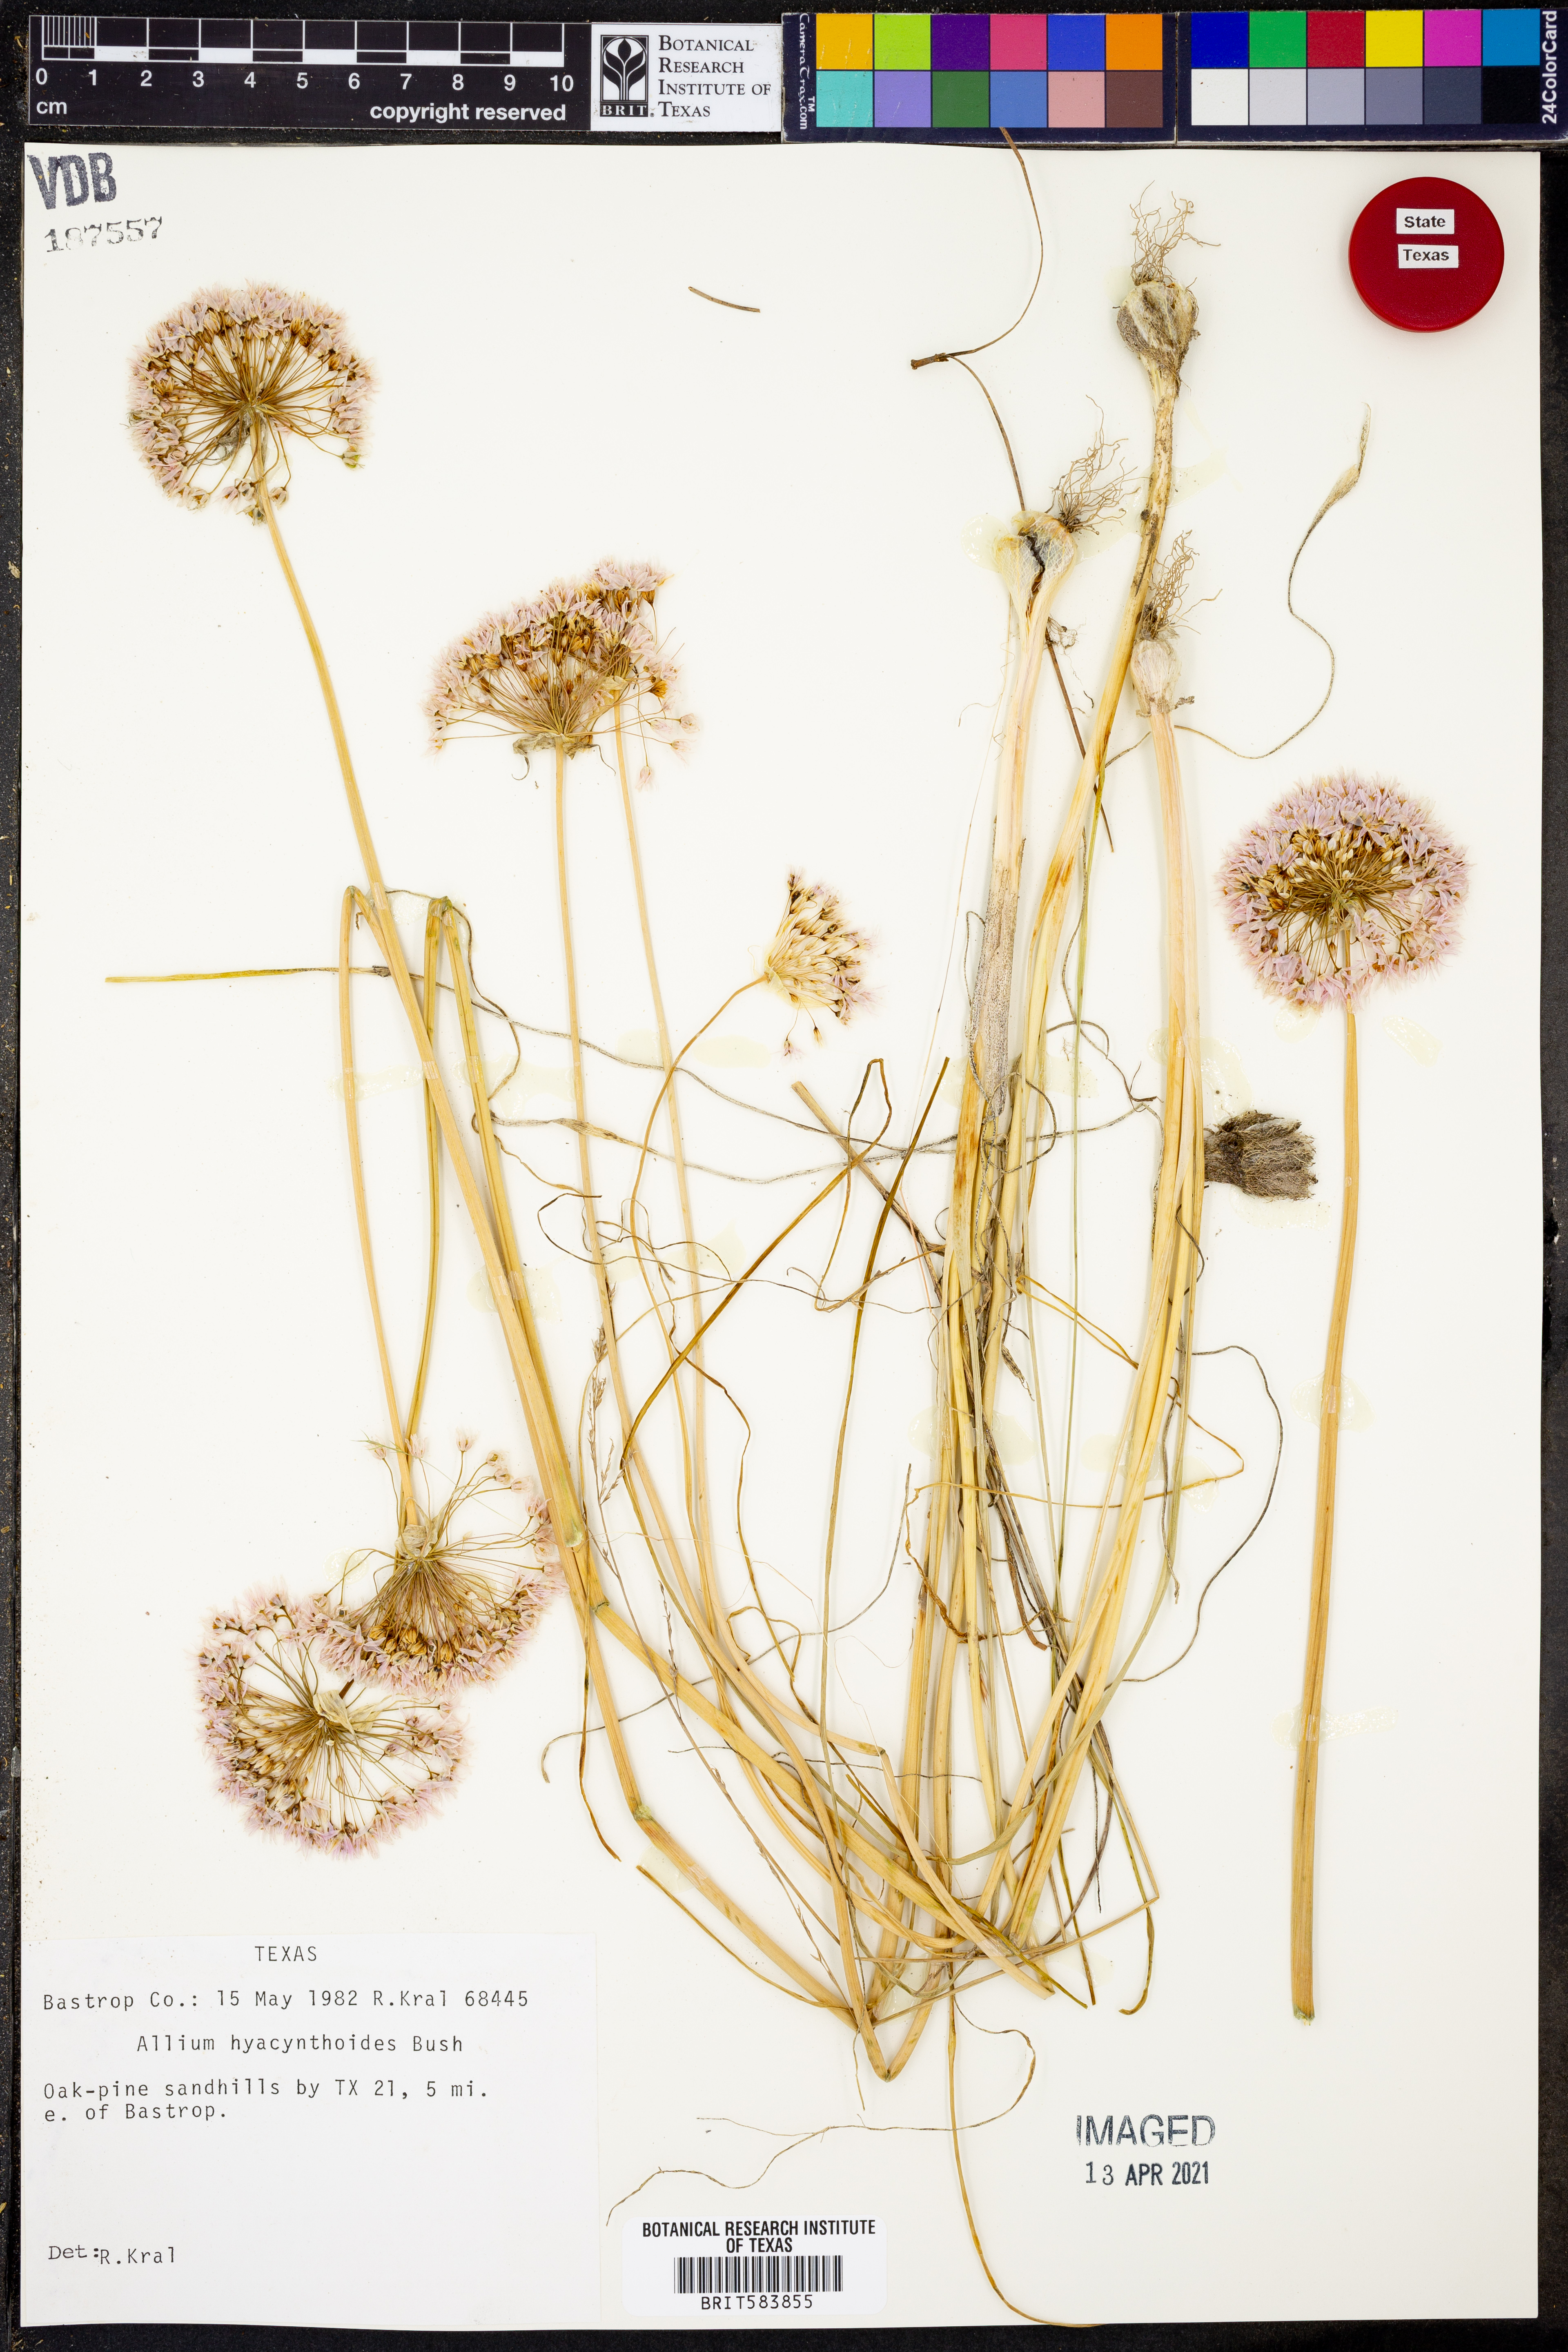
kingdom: Plantae
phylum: Tracheophyta
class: Liliopsida
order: Asparagales
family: Amaryllidaceae
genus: Allium
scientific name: Allium canadense
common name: Meadow garlic
